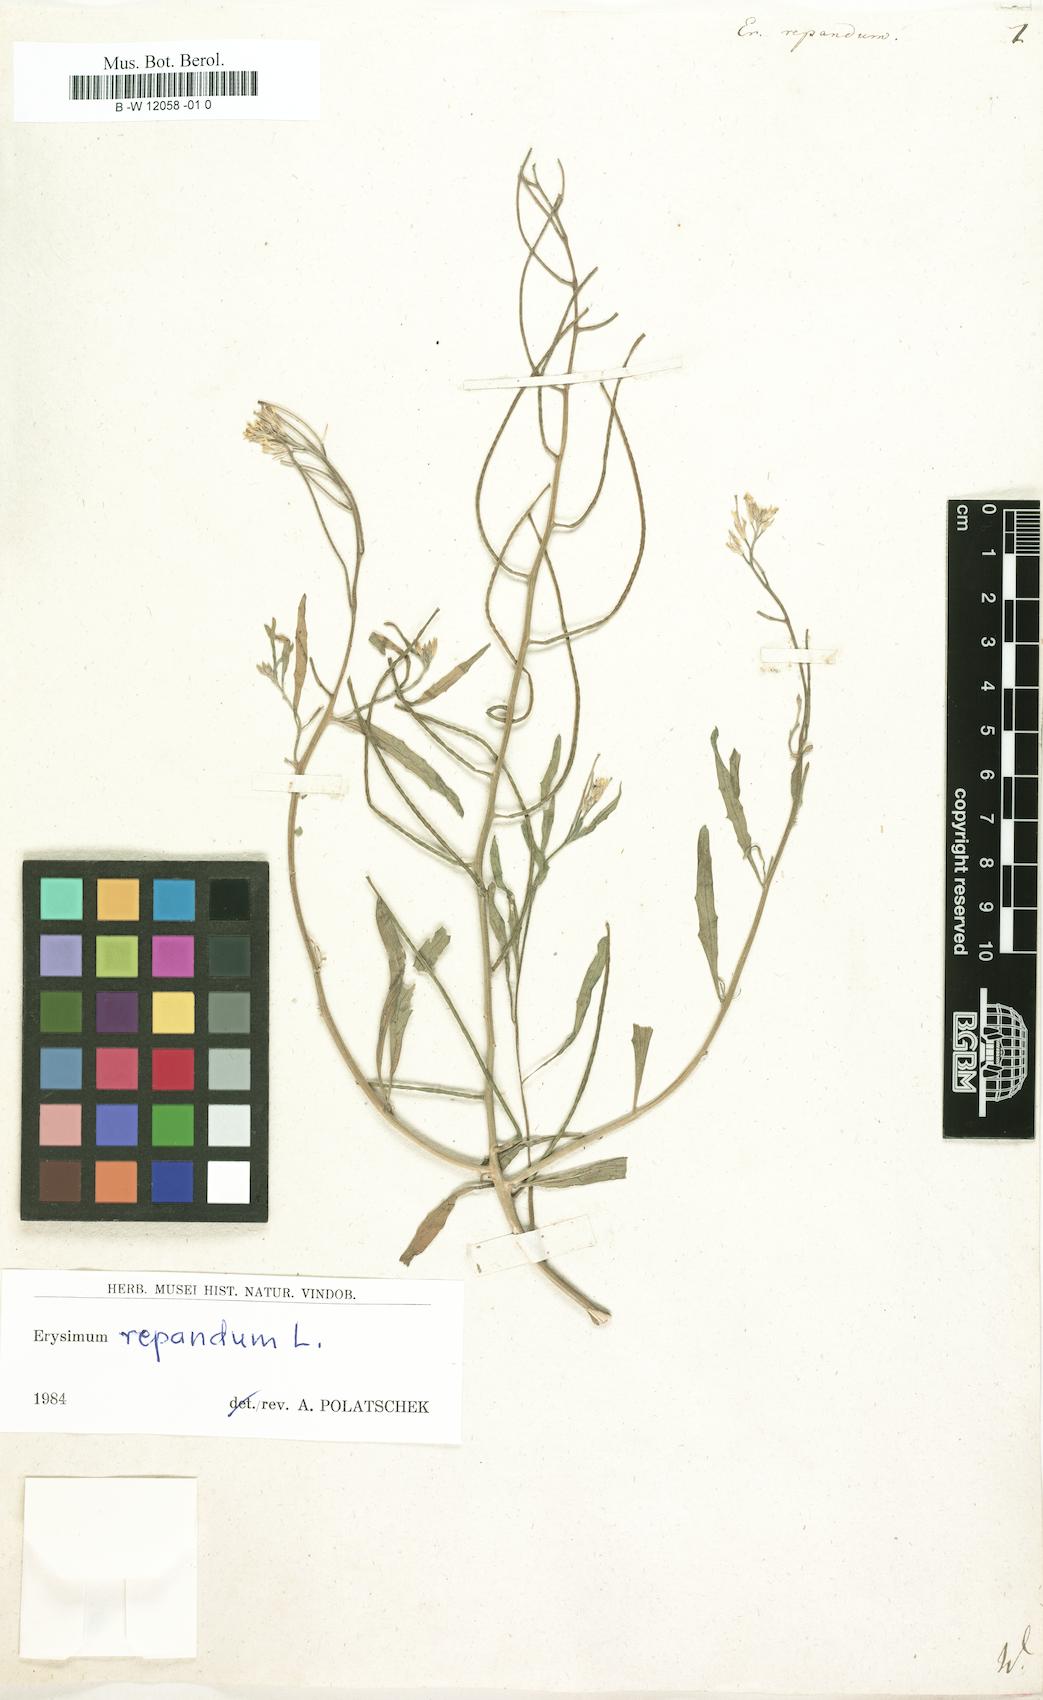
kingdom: Plantae
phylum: Tracheophyta
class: Magnoliopsida
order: Brassicales
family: Brassicaceae
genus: Erysimum
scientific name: Erysimum repandum
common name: Spreading wallflower
